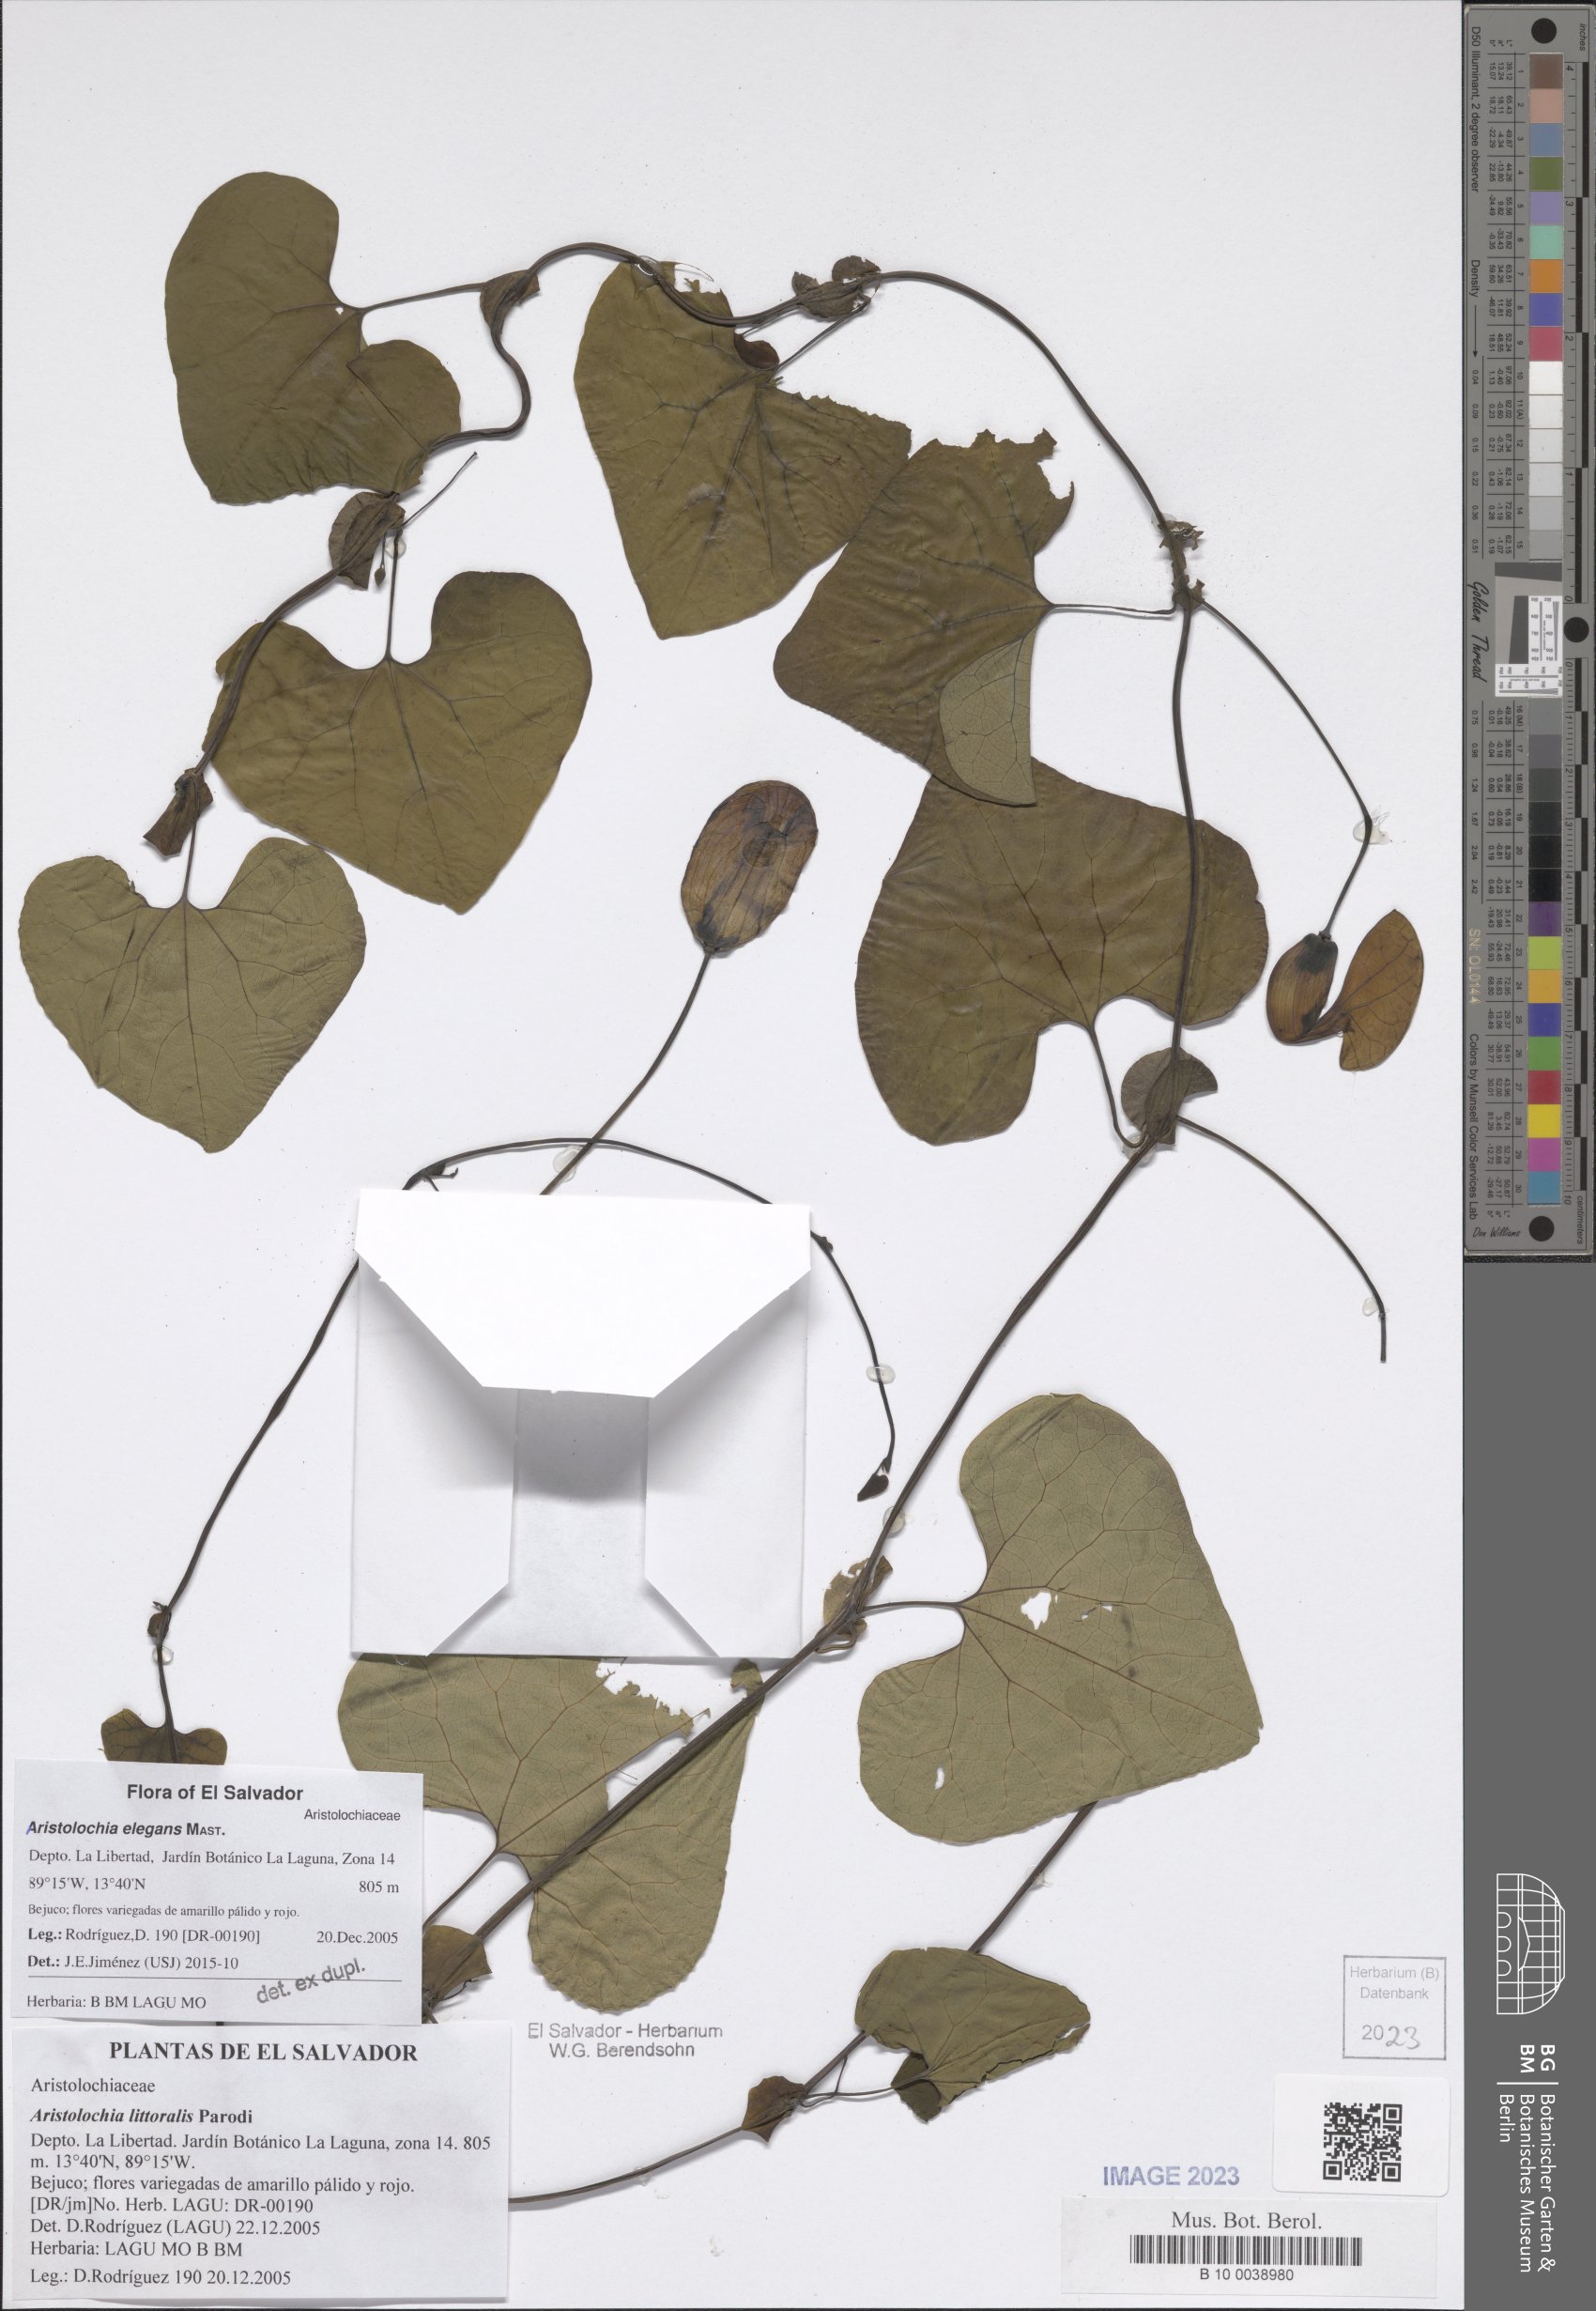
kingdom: Plantae
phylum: Tracheophyta
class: Magnoliopsida
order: Piperales
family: Aristolochiaceae
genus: Aristolochia
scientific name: Aristolochia littoralis
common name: Duck
